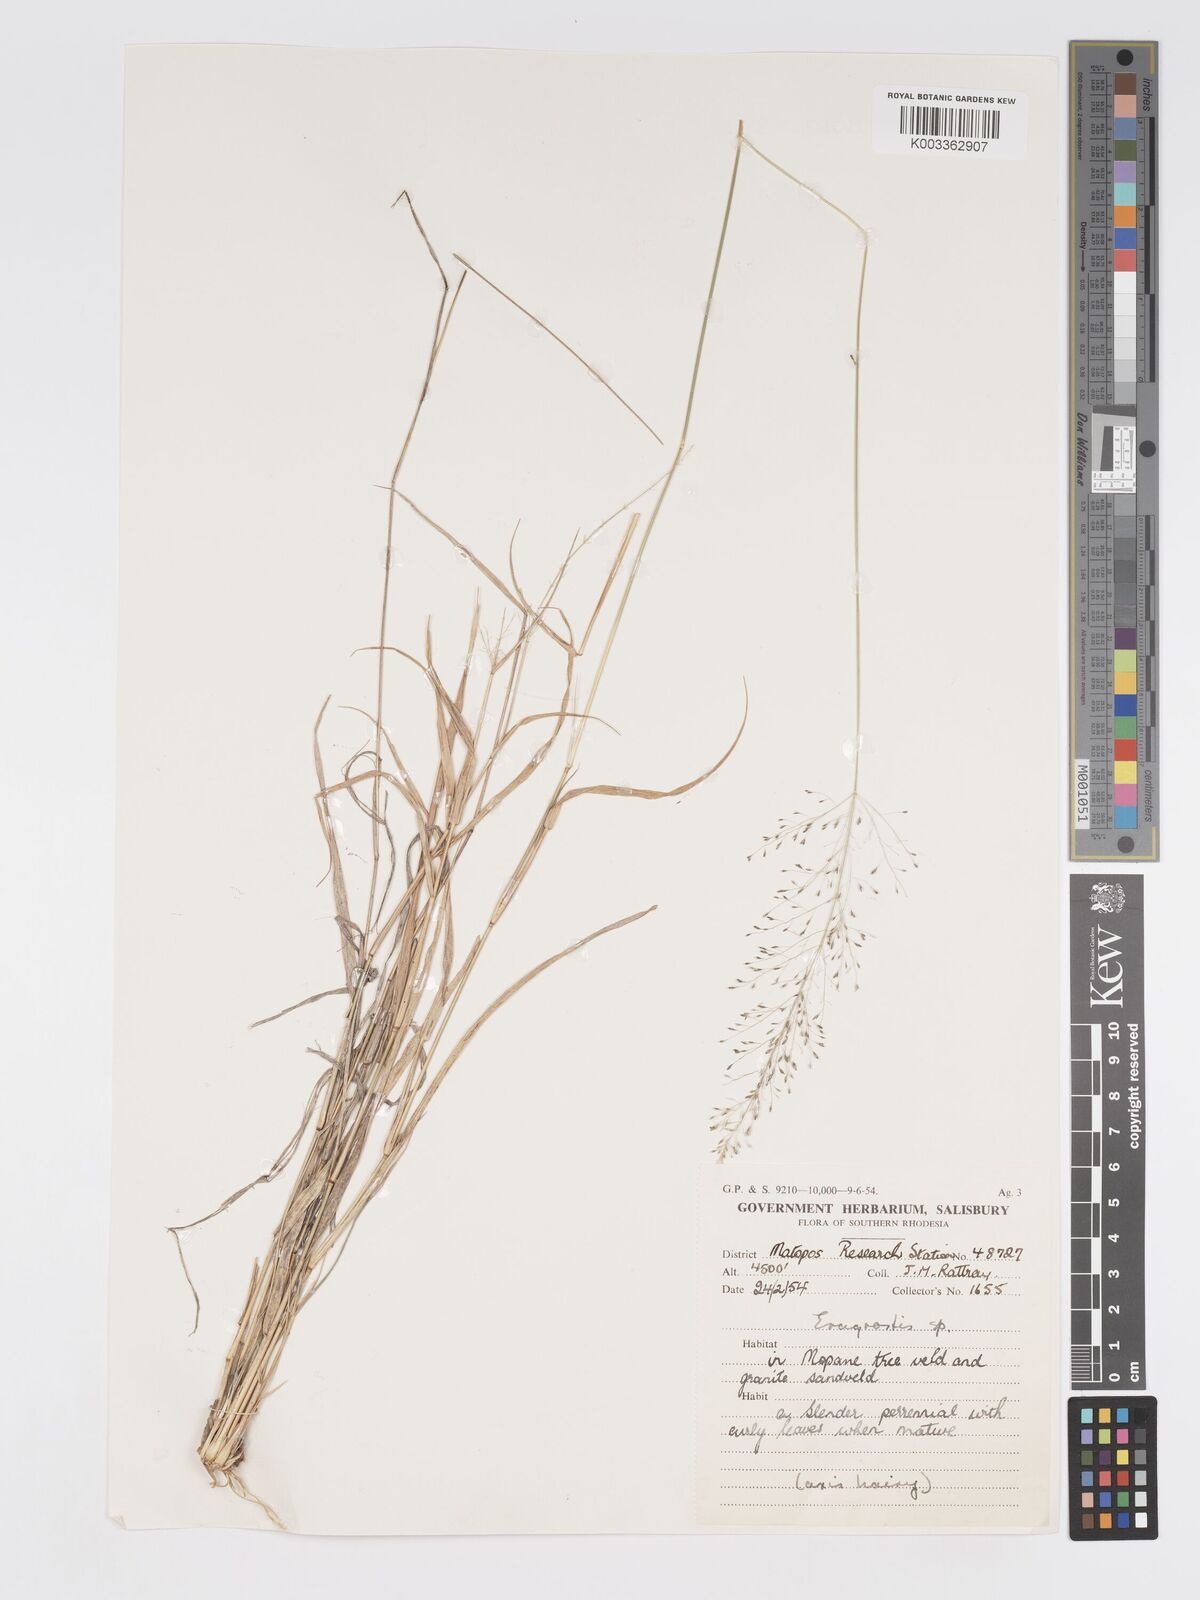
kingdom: Plantae
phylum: Tracheophyta
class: Liliopsida
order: Poales
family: Poaceae
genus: Eragrostis
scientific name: Eragrostis cylindriflora
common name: Cylinderflower lovegrass
